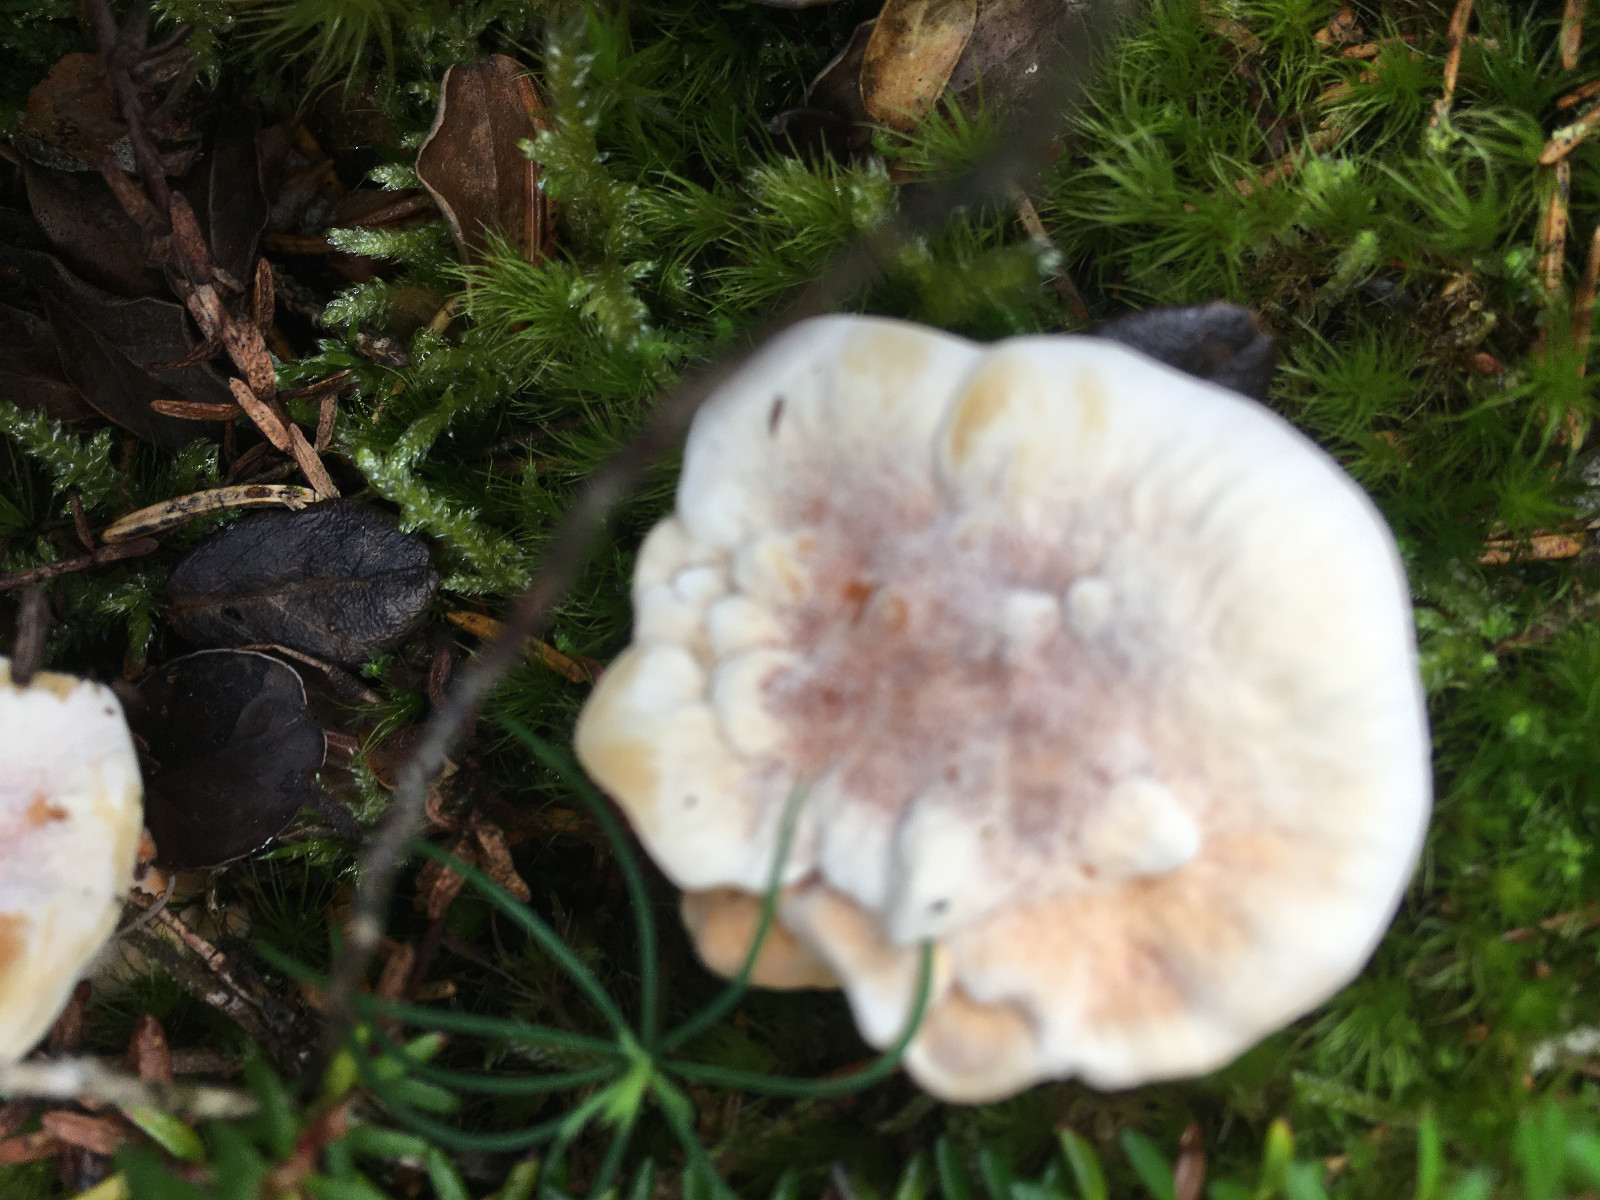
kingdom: Fungi
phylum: Basidiomycota
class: Agaricomycetes
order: Thelephorales
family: Bankeraceae
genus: Hydnellum
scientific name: Hydnellum aurantiacum
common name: orange korkpigsvamp
